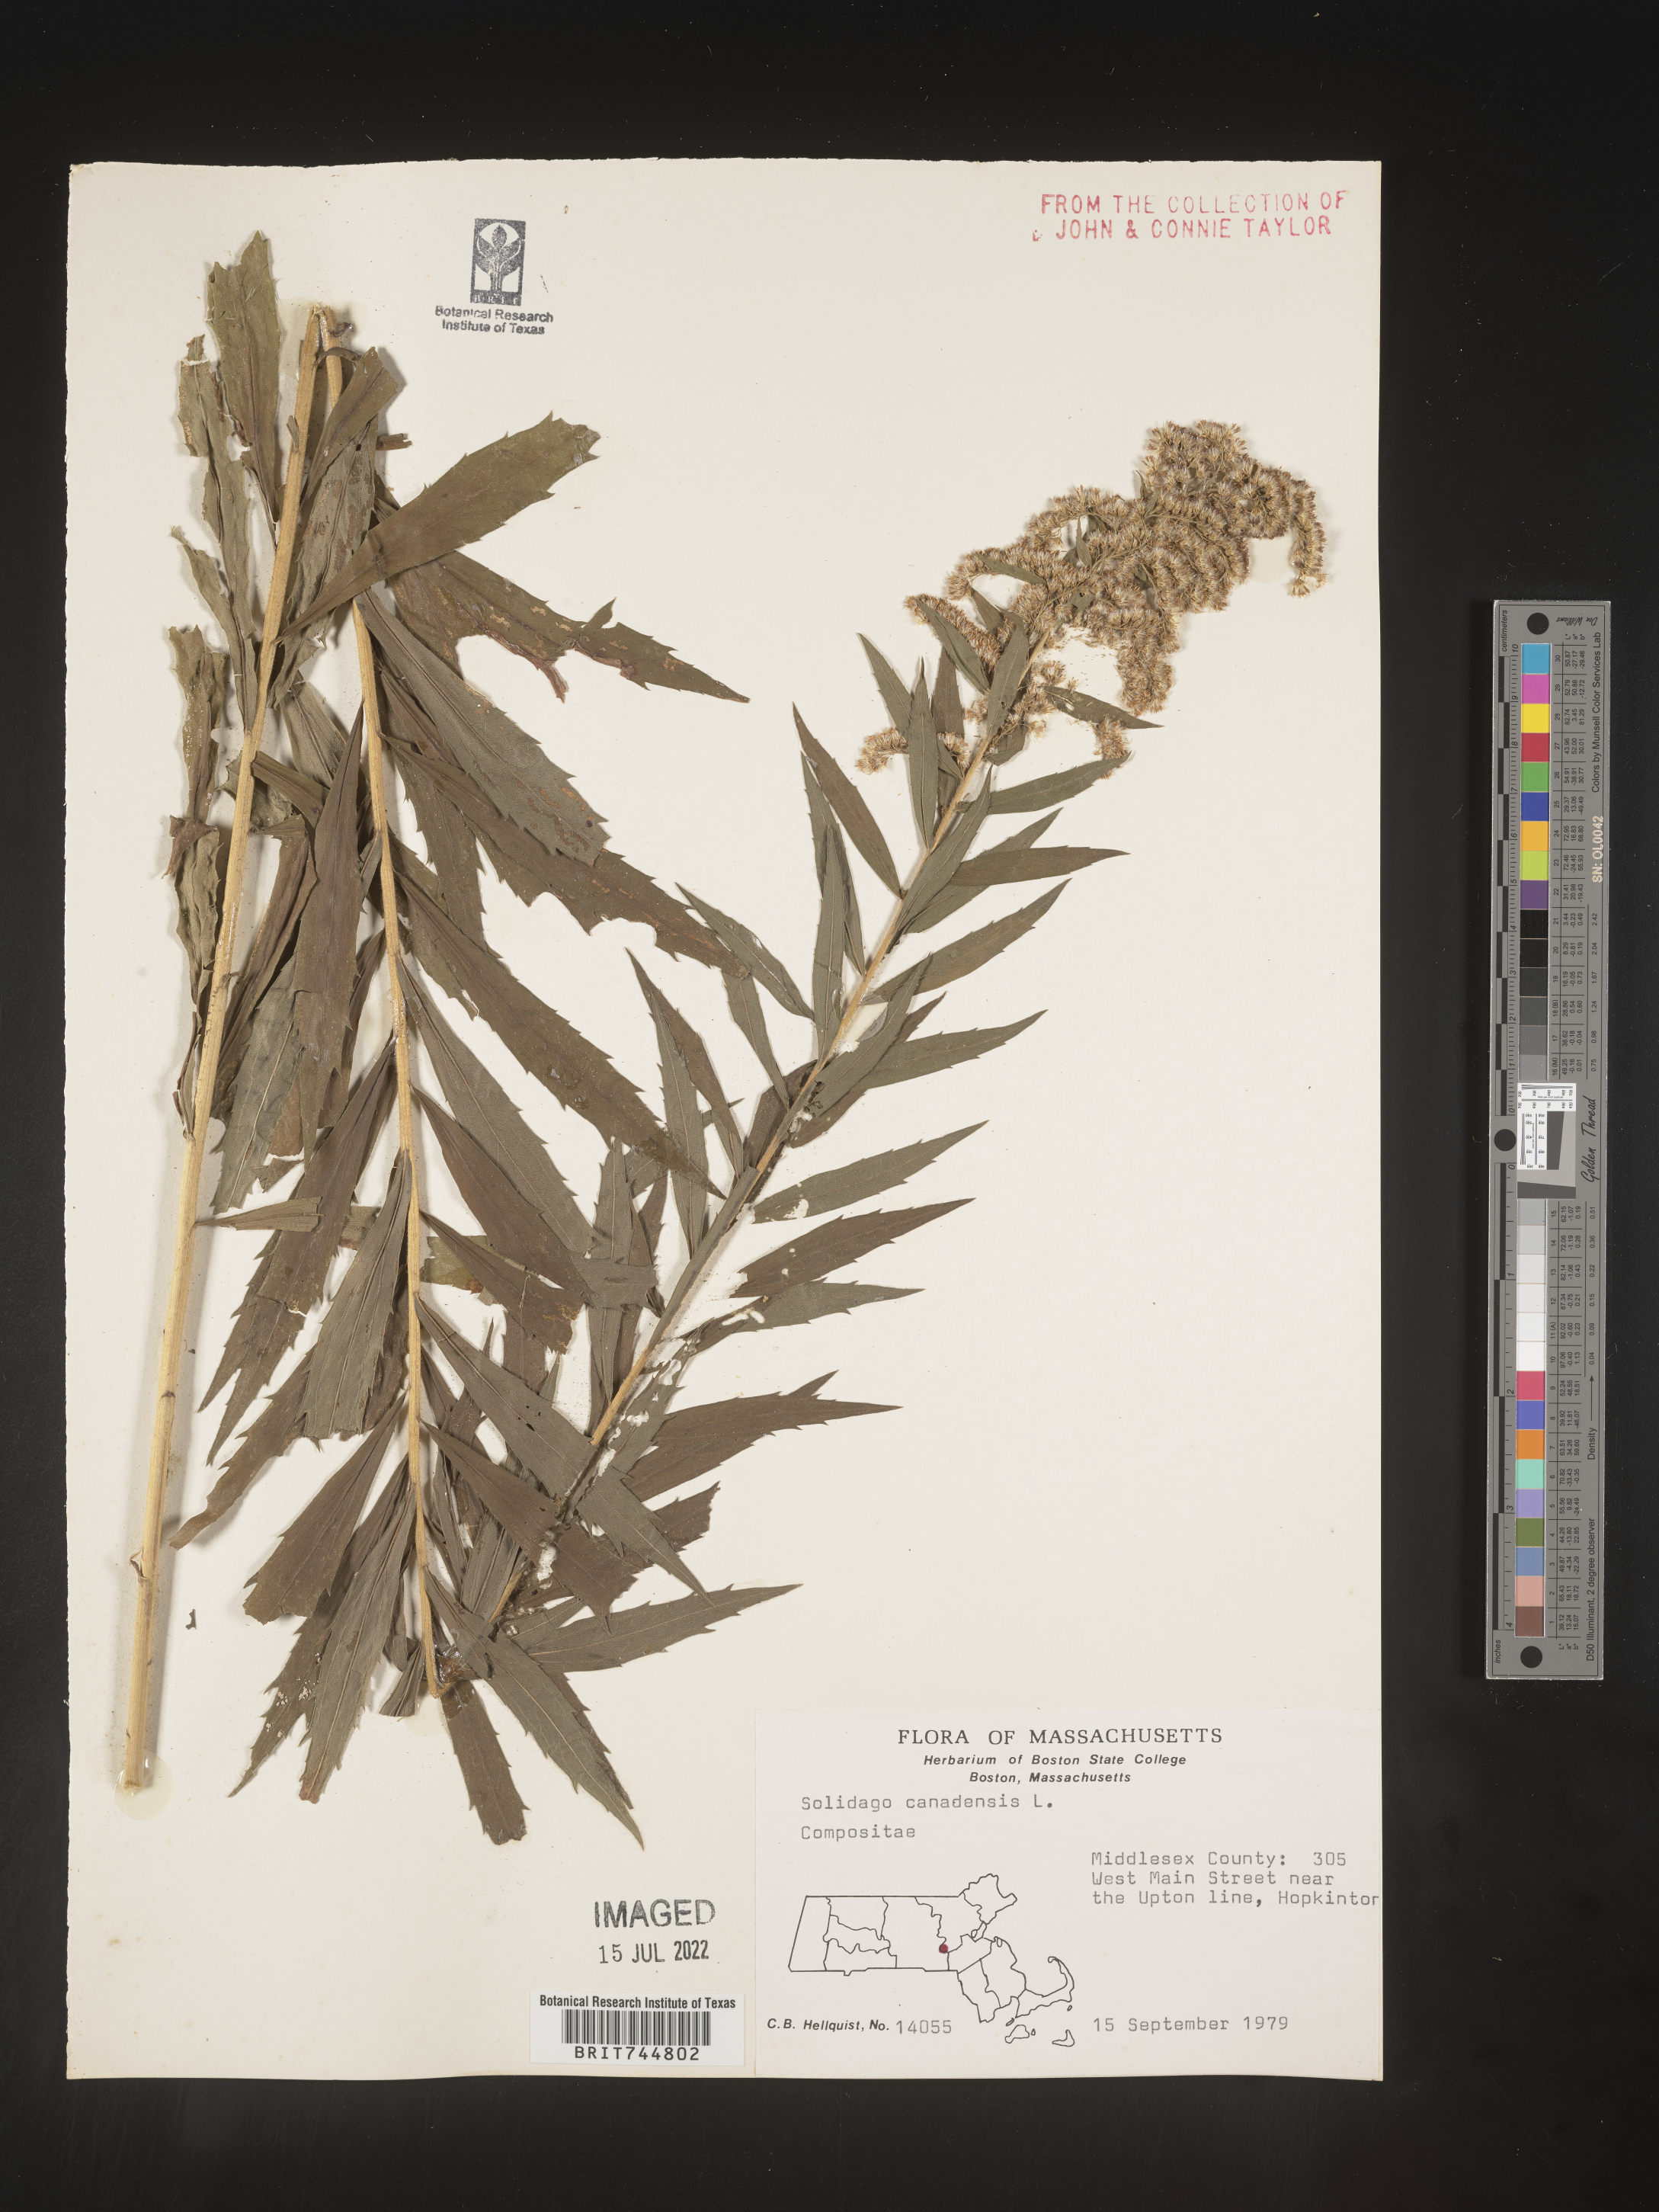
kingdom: Plantae
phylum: Tracheophyta
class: Magnoliopsida
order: Asterales
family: Asteraceae
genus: Solidago
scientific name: Solidago canadensis
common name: Canada goldenrod
